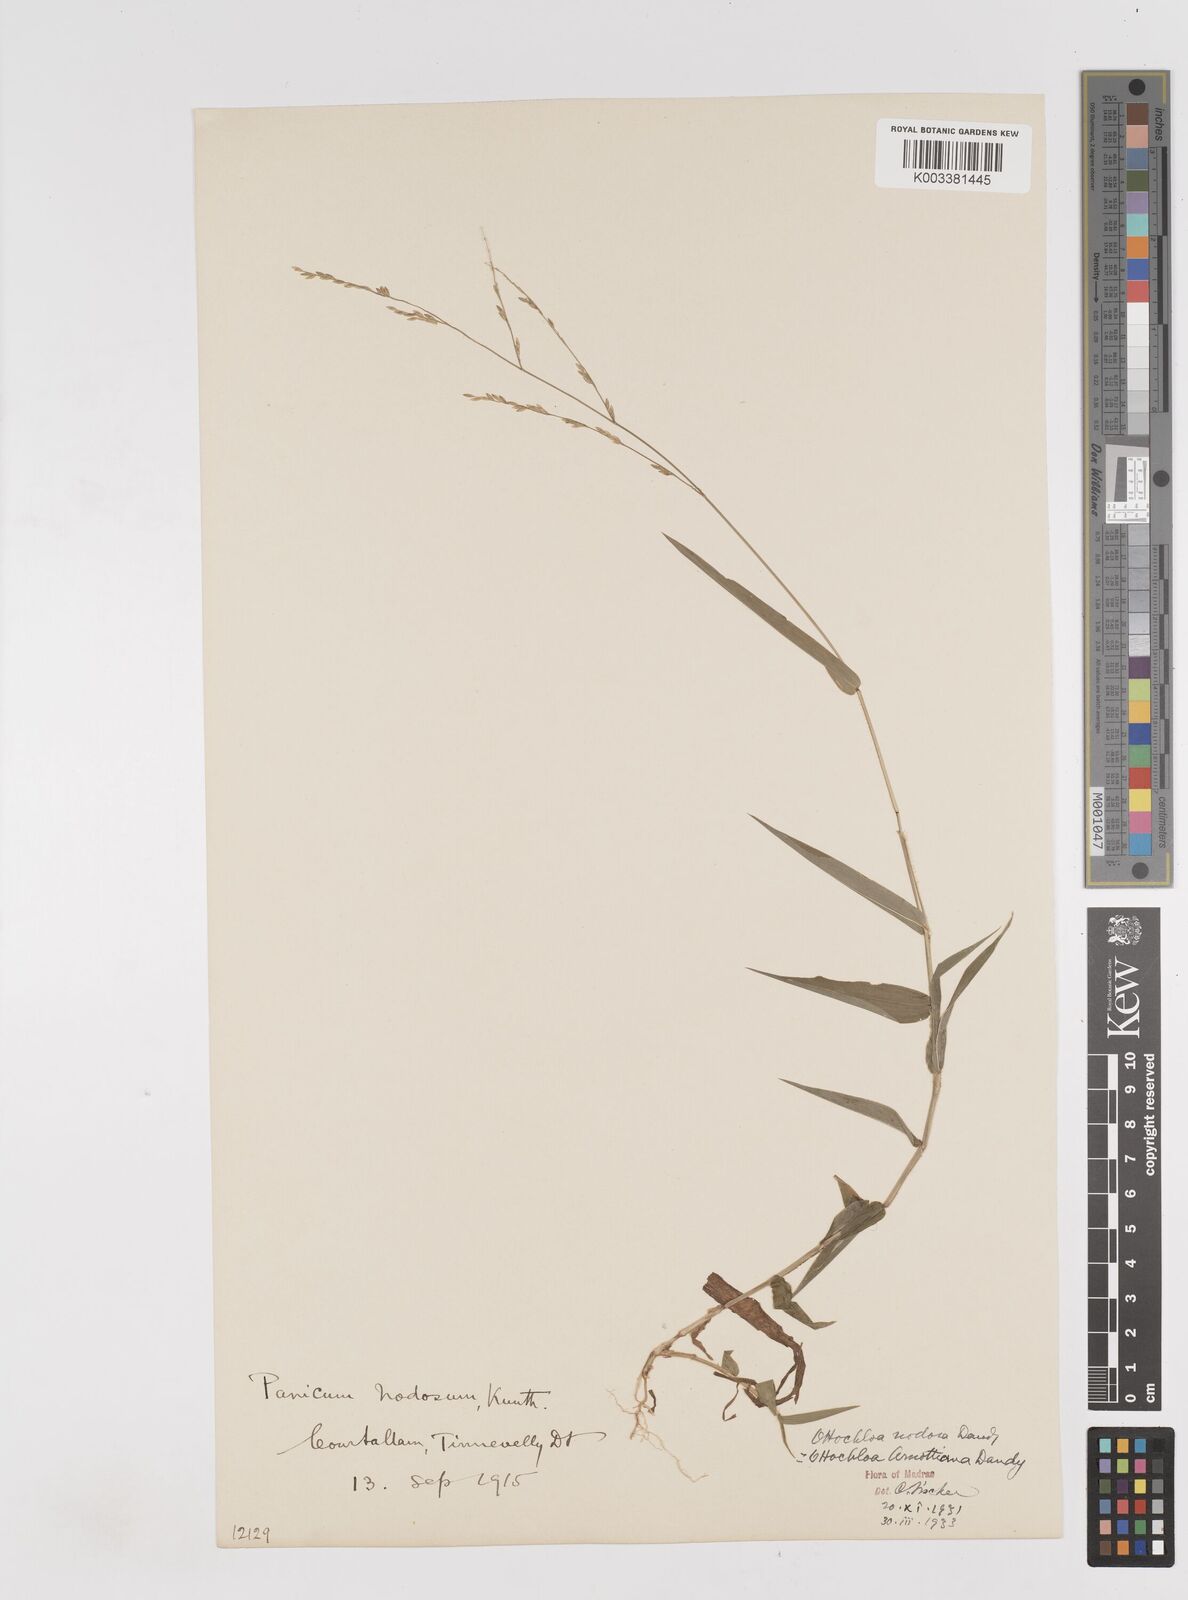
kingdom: Plantae
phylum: Tracheophyta
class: Liliopsida
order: Poales
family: Poaceae
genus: Ottochloa
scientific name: Ottochloa nodosa
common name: Slender-panic grass
